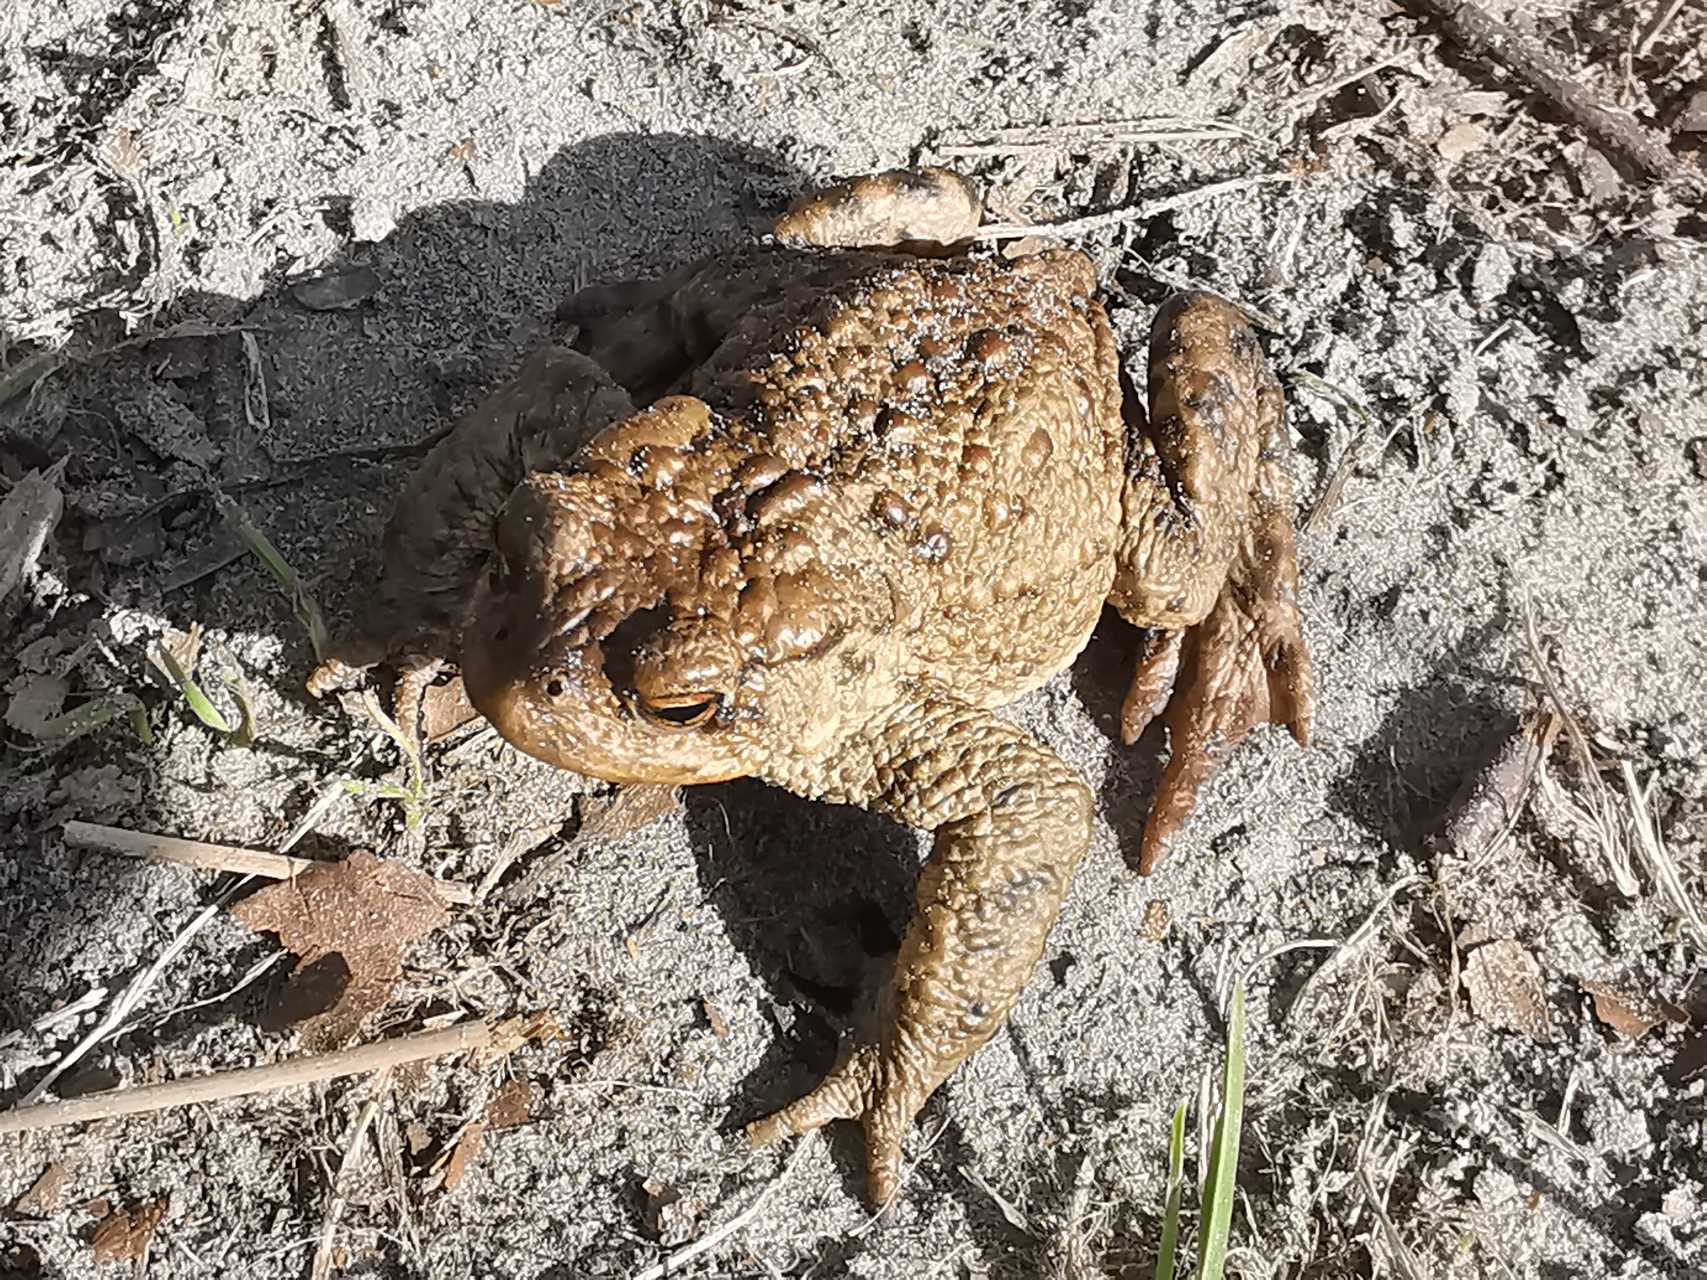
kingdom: Animalia
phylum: Chordata
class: Amphibia
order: Anura
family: Bufonidae
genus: Bufo
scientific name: Bufo bufo
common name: Skrubtudse
